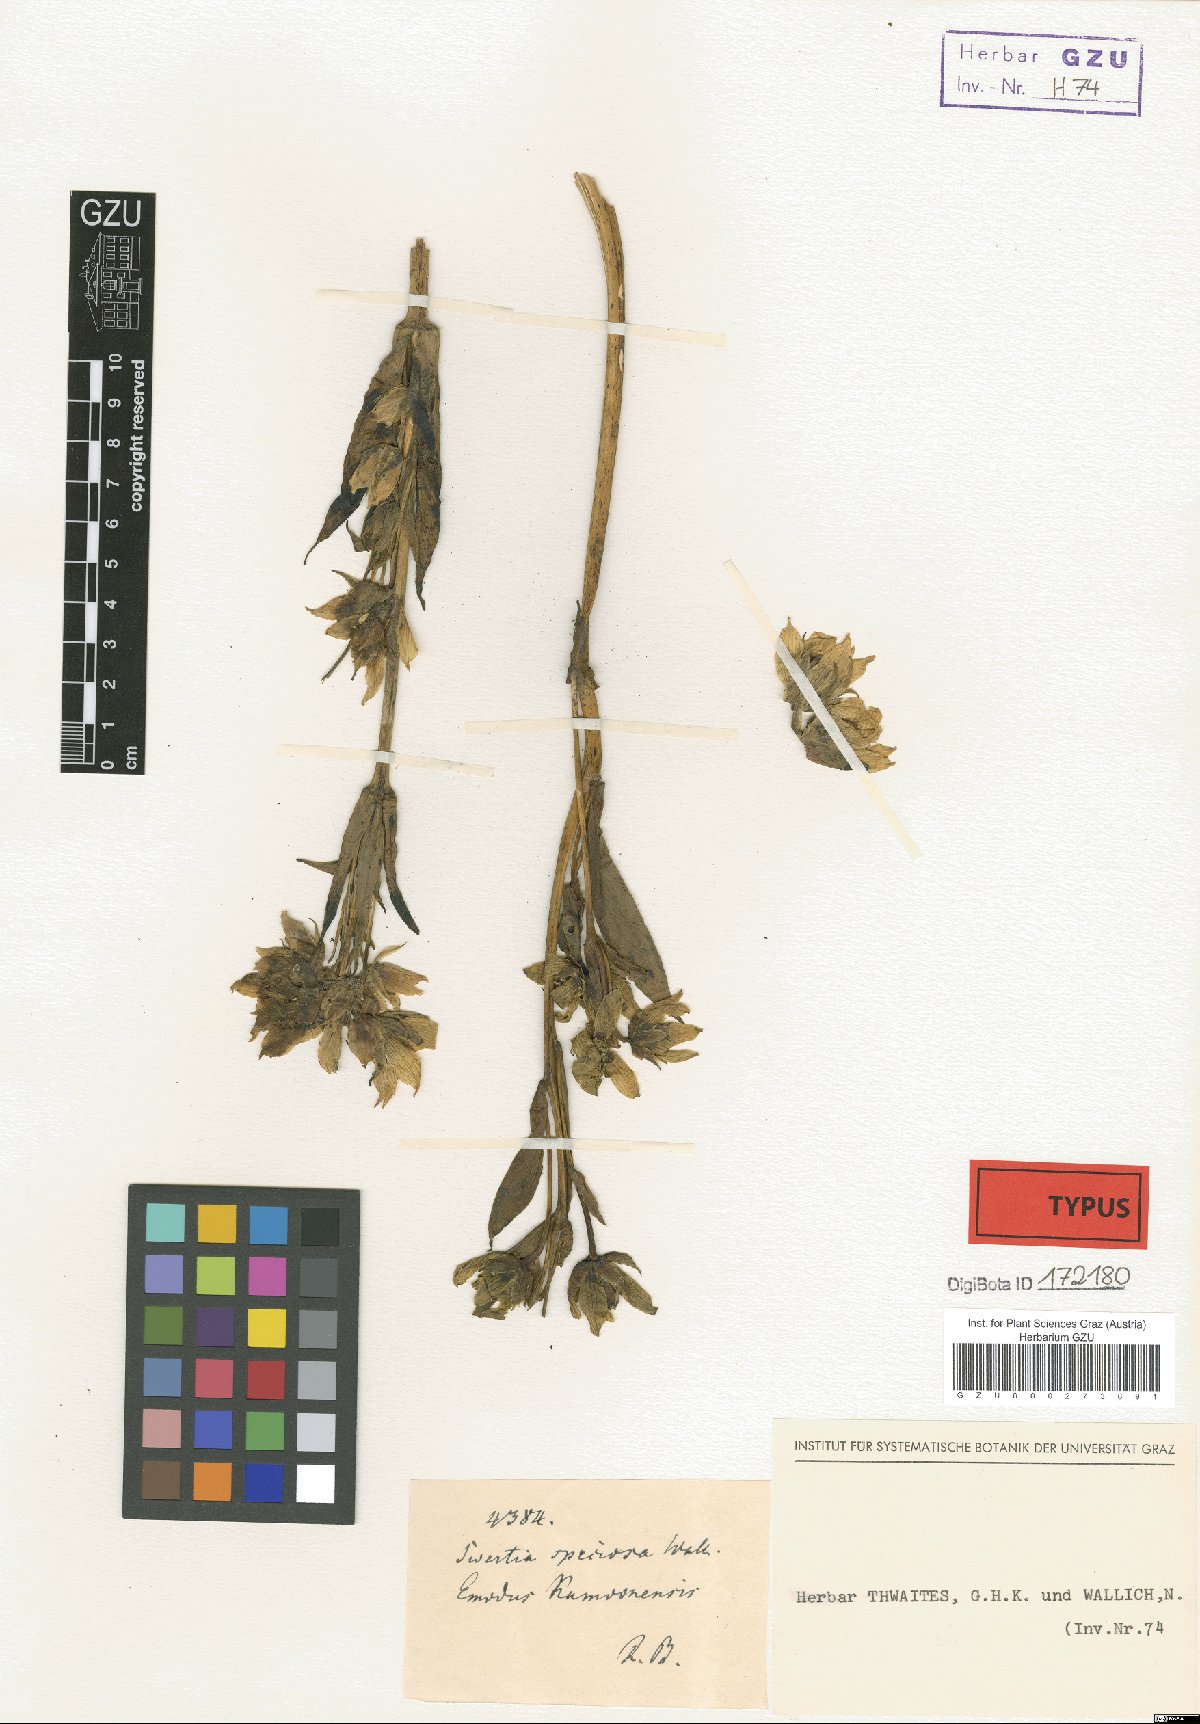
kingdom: Plantae
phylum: Tracheophyta
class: Magnoliopsida
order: Gentianales
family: Gentianaceae
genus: Swertia
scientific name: Swertia speciosa
